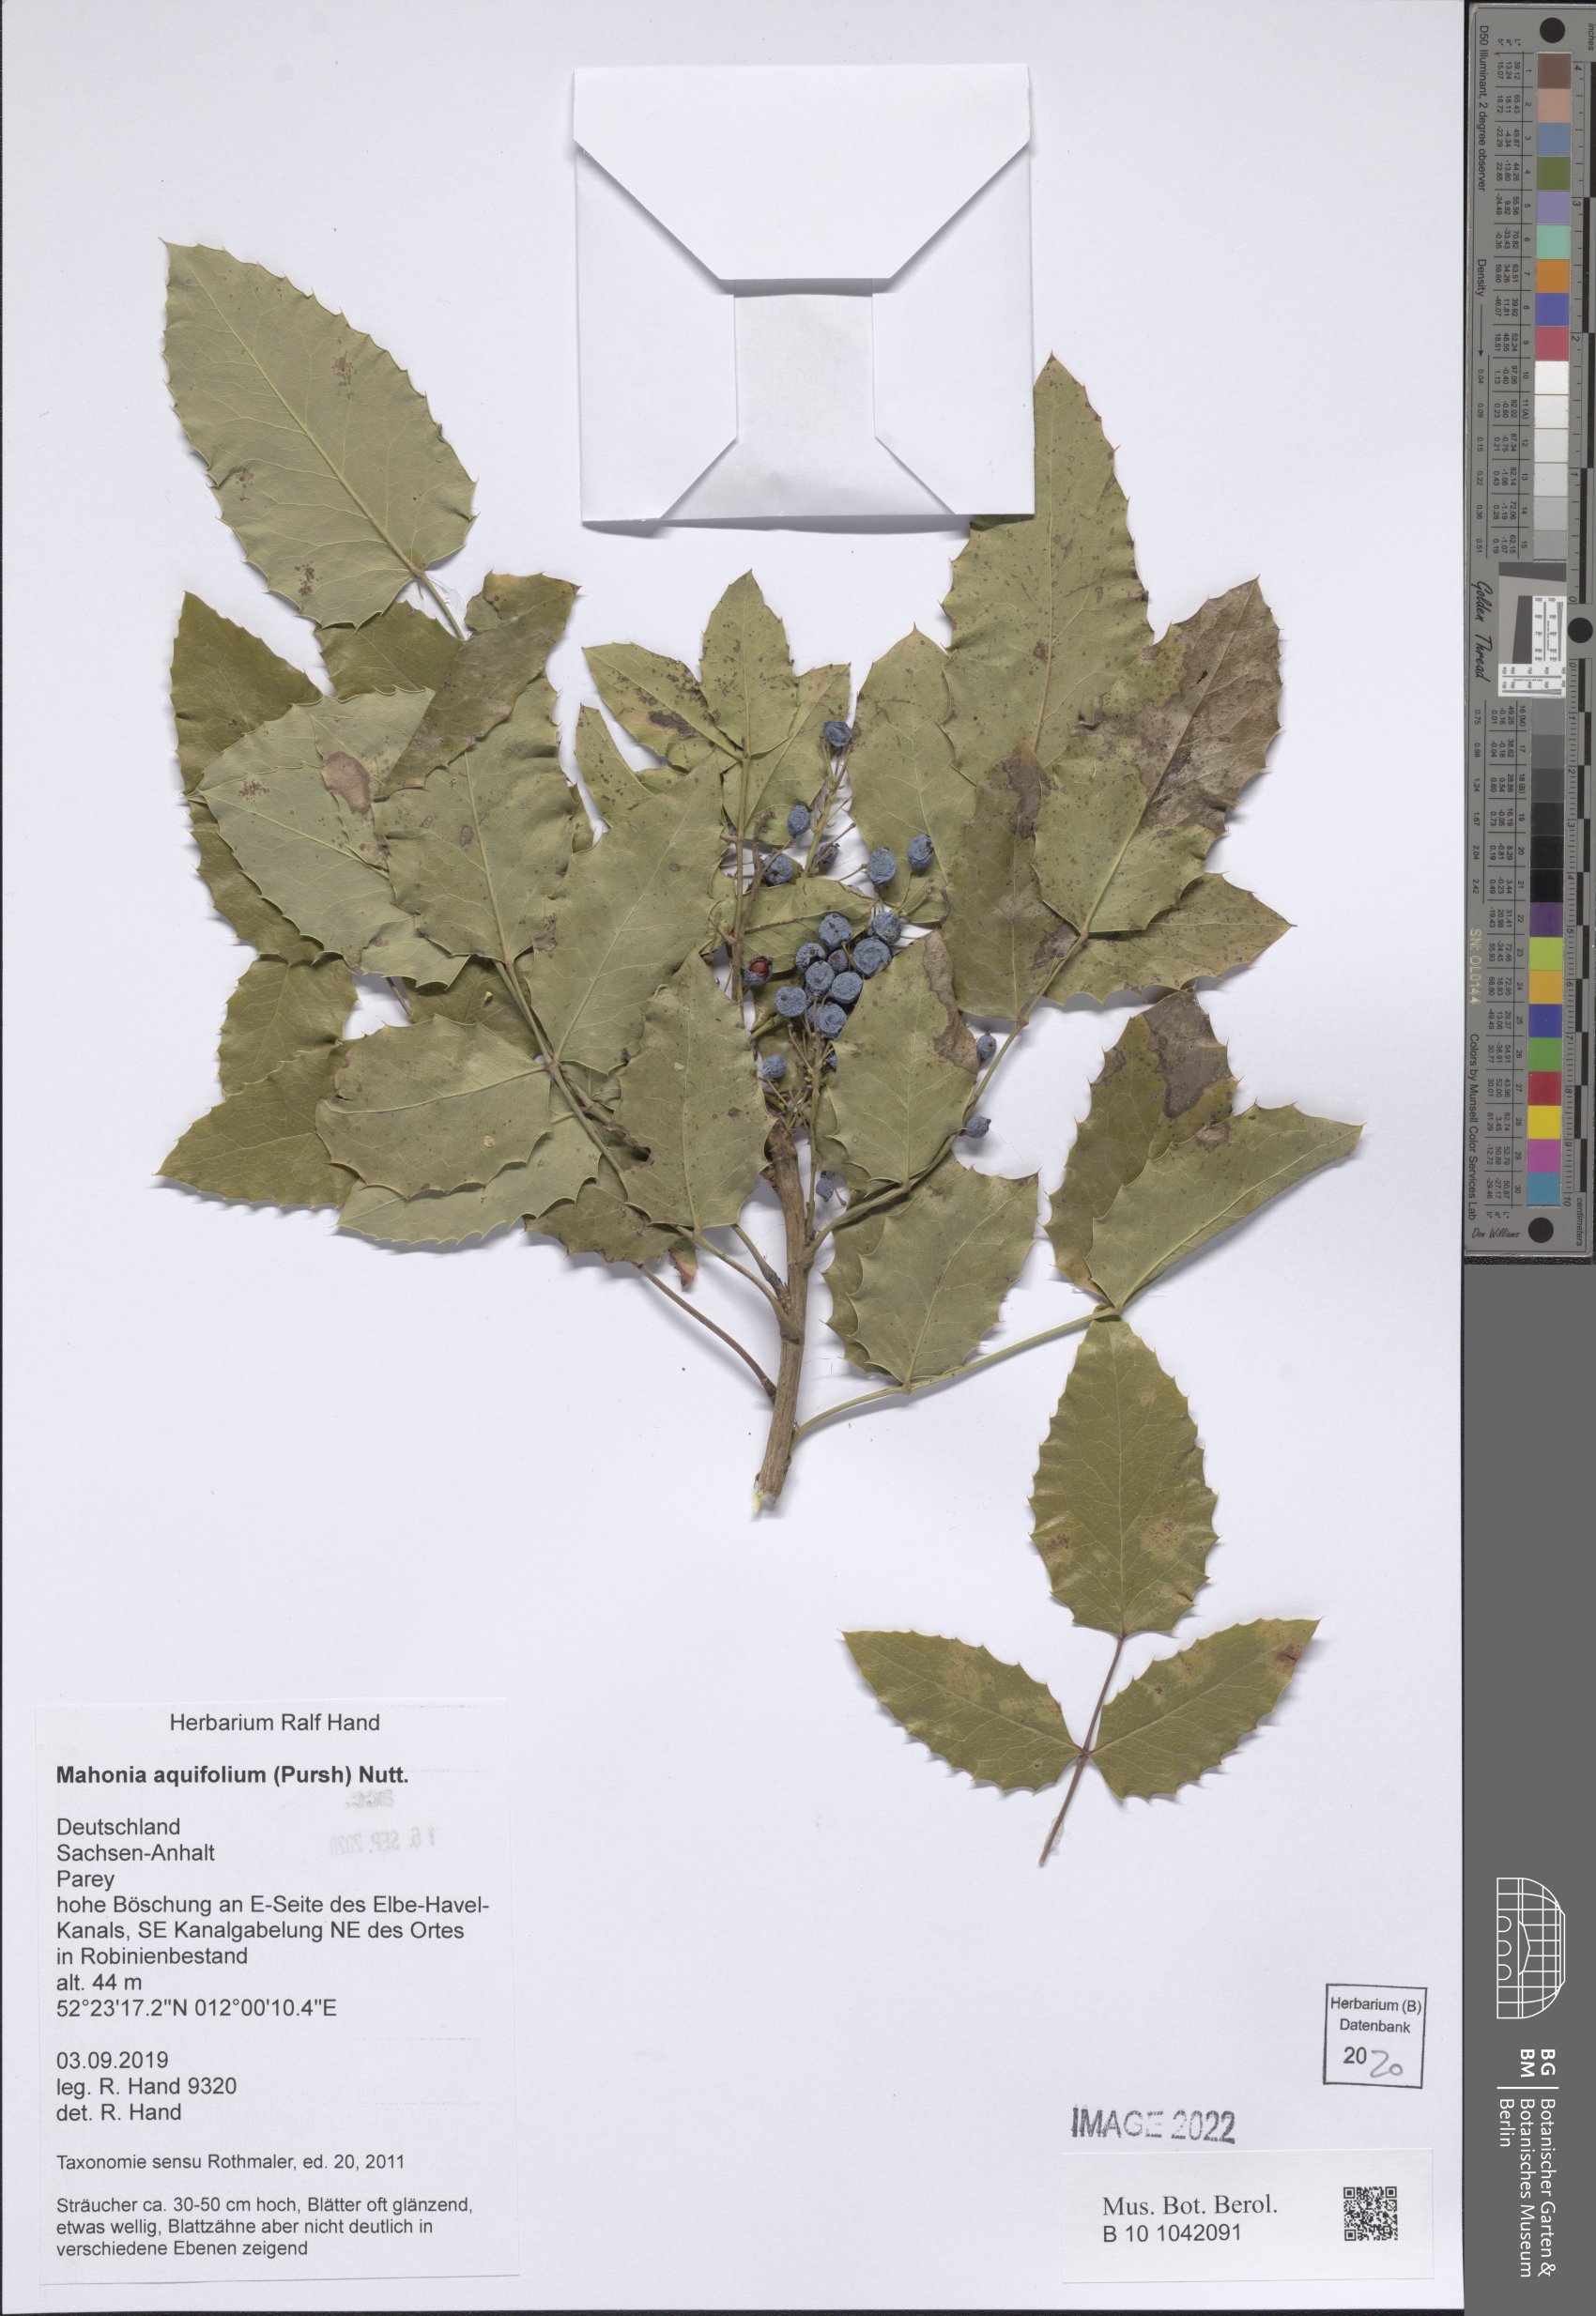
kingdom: Plantae
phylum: Tracheophyta
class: Magnoliopsida
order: Ranunculales
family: Berberidaceae
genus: Mahonia
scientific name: Mahonia aquifolium
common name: Oregon-grape
